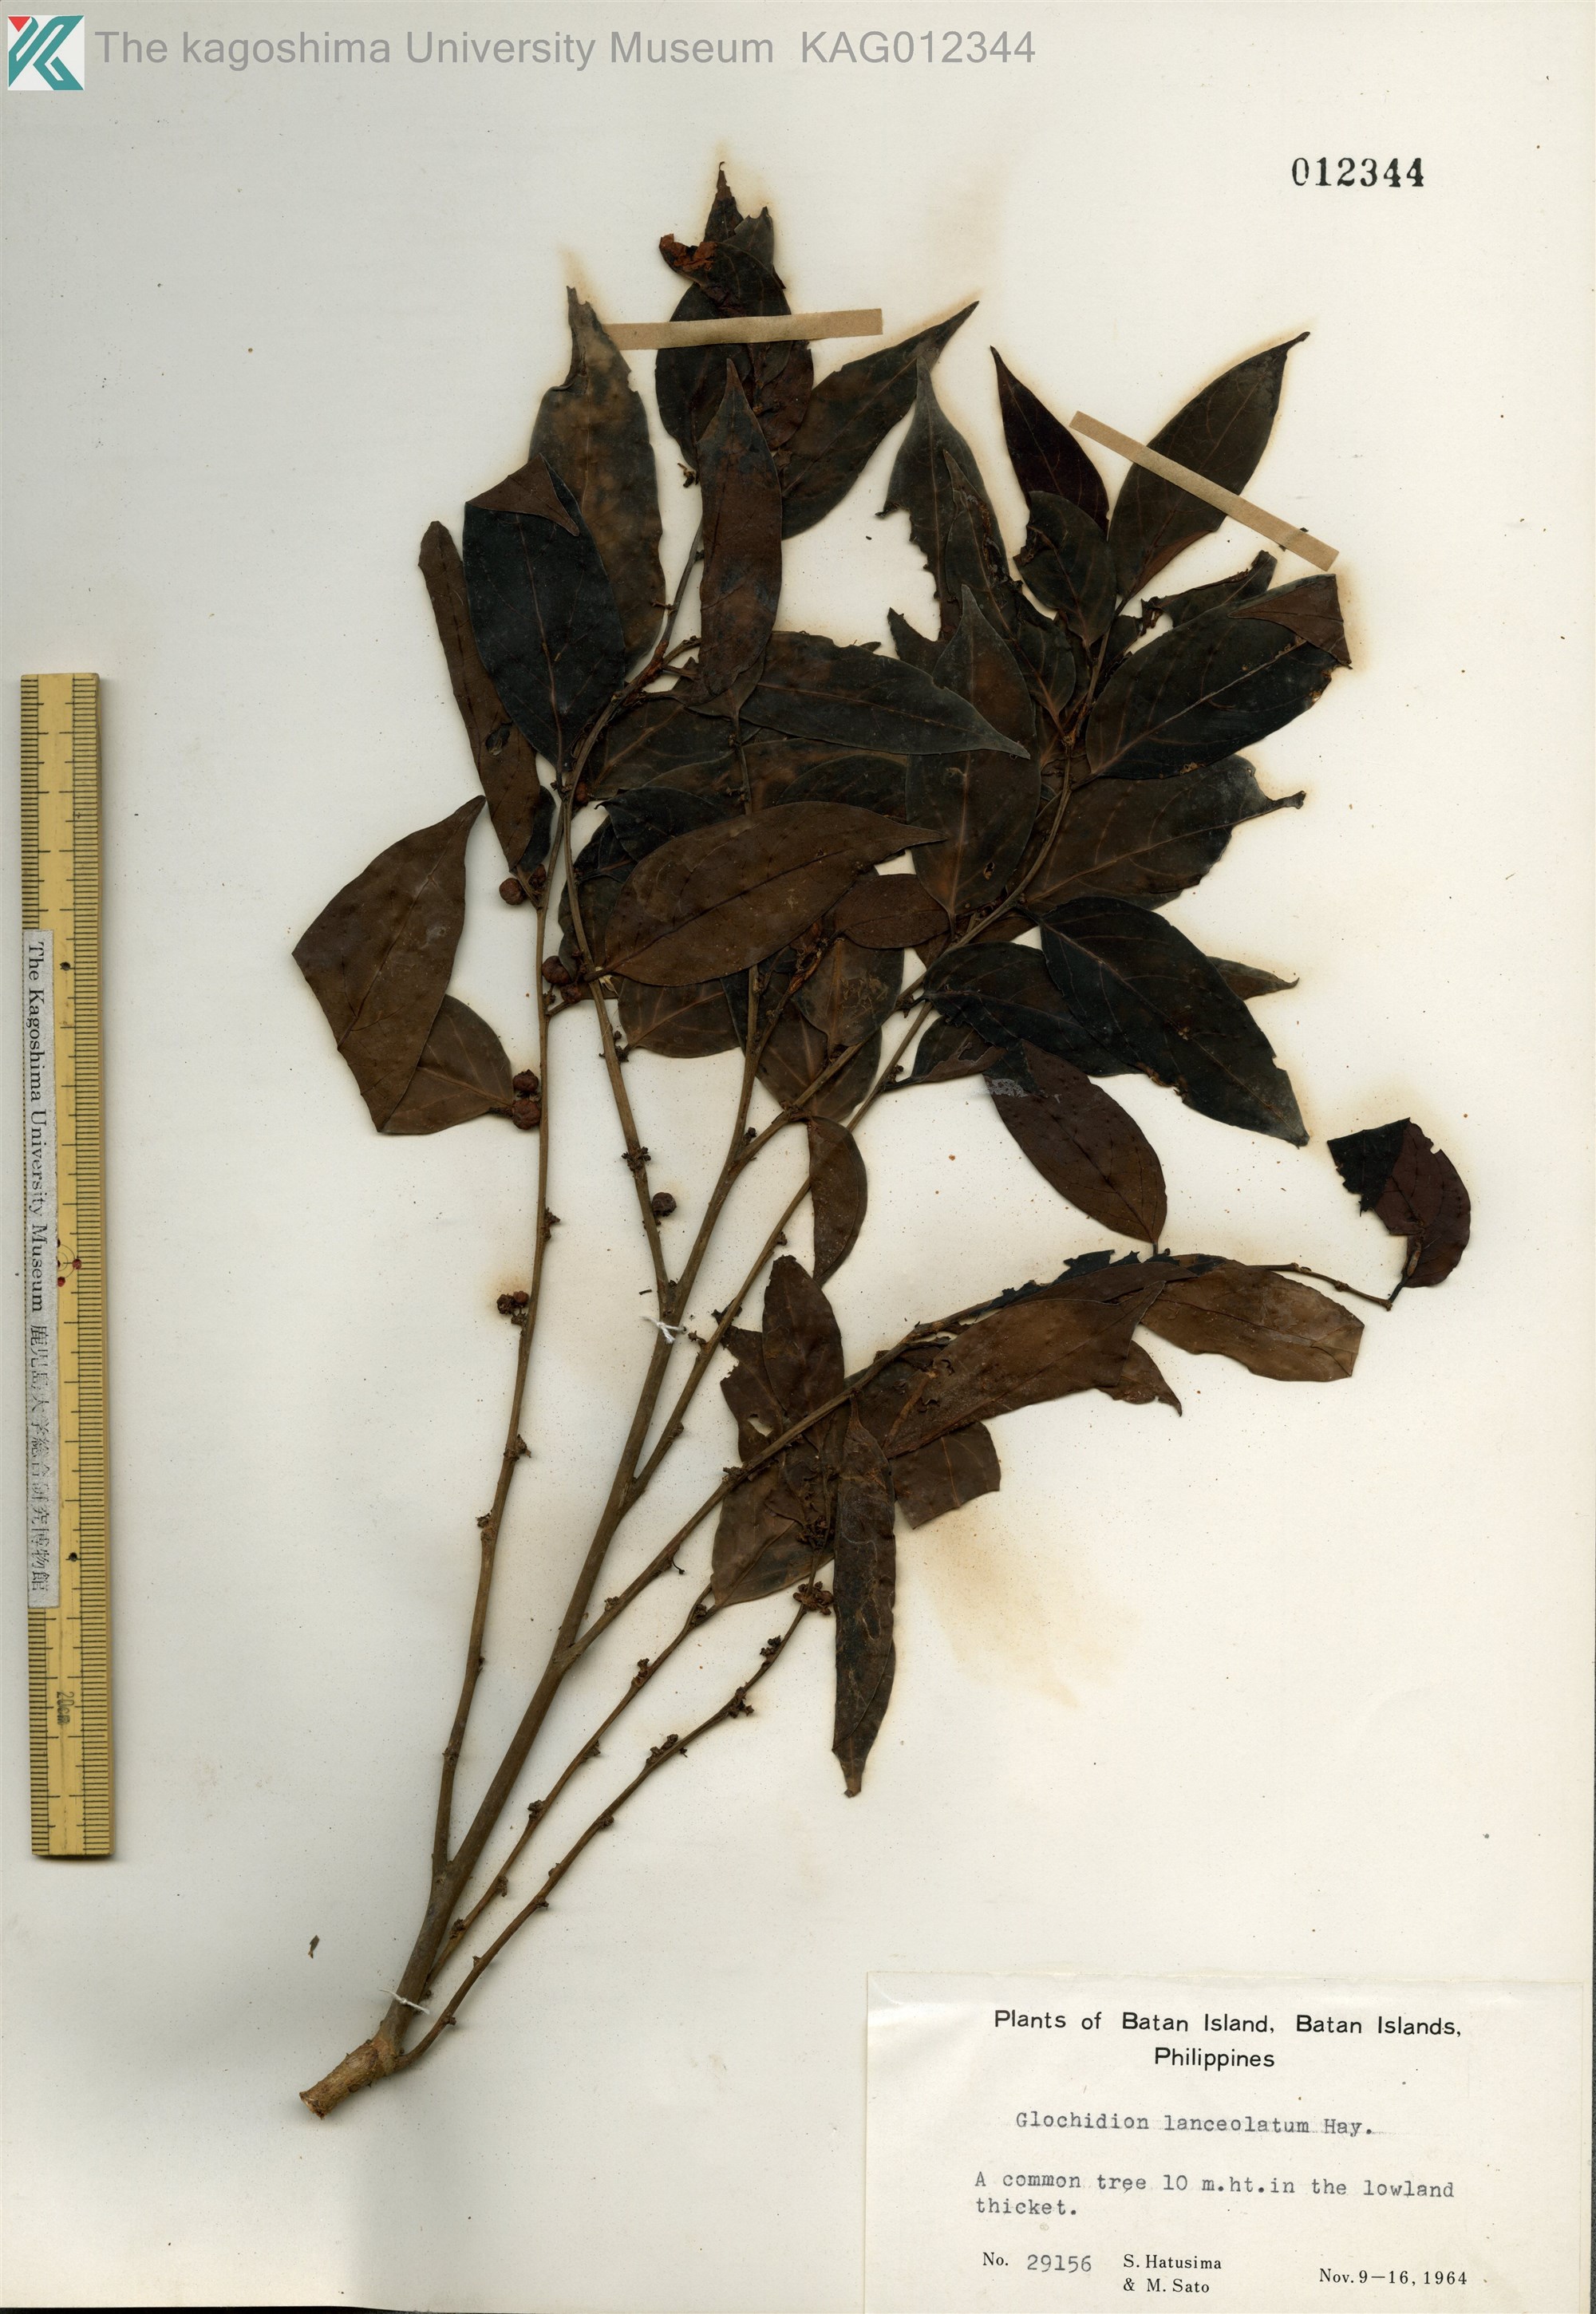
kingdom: Plantae
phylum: Tracheophyta
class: Magnoliopsida
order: Malpighiales
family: Phyllanthaceae
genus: Glochidion
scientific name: Glochidion lanceolatum
